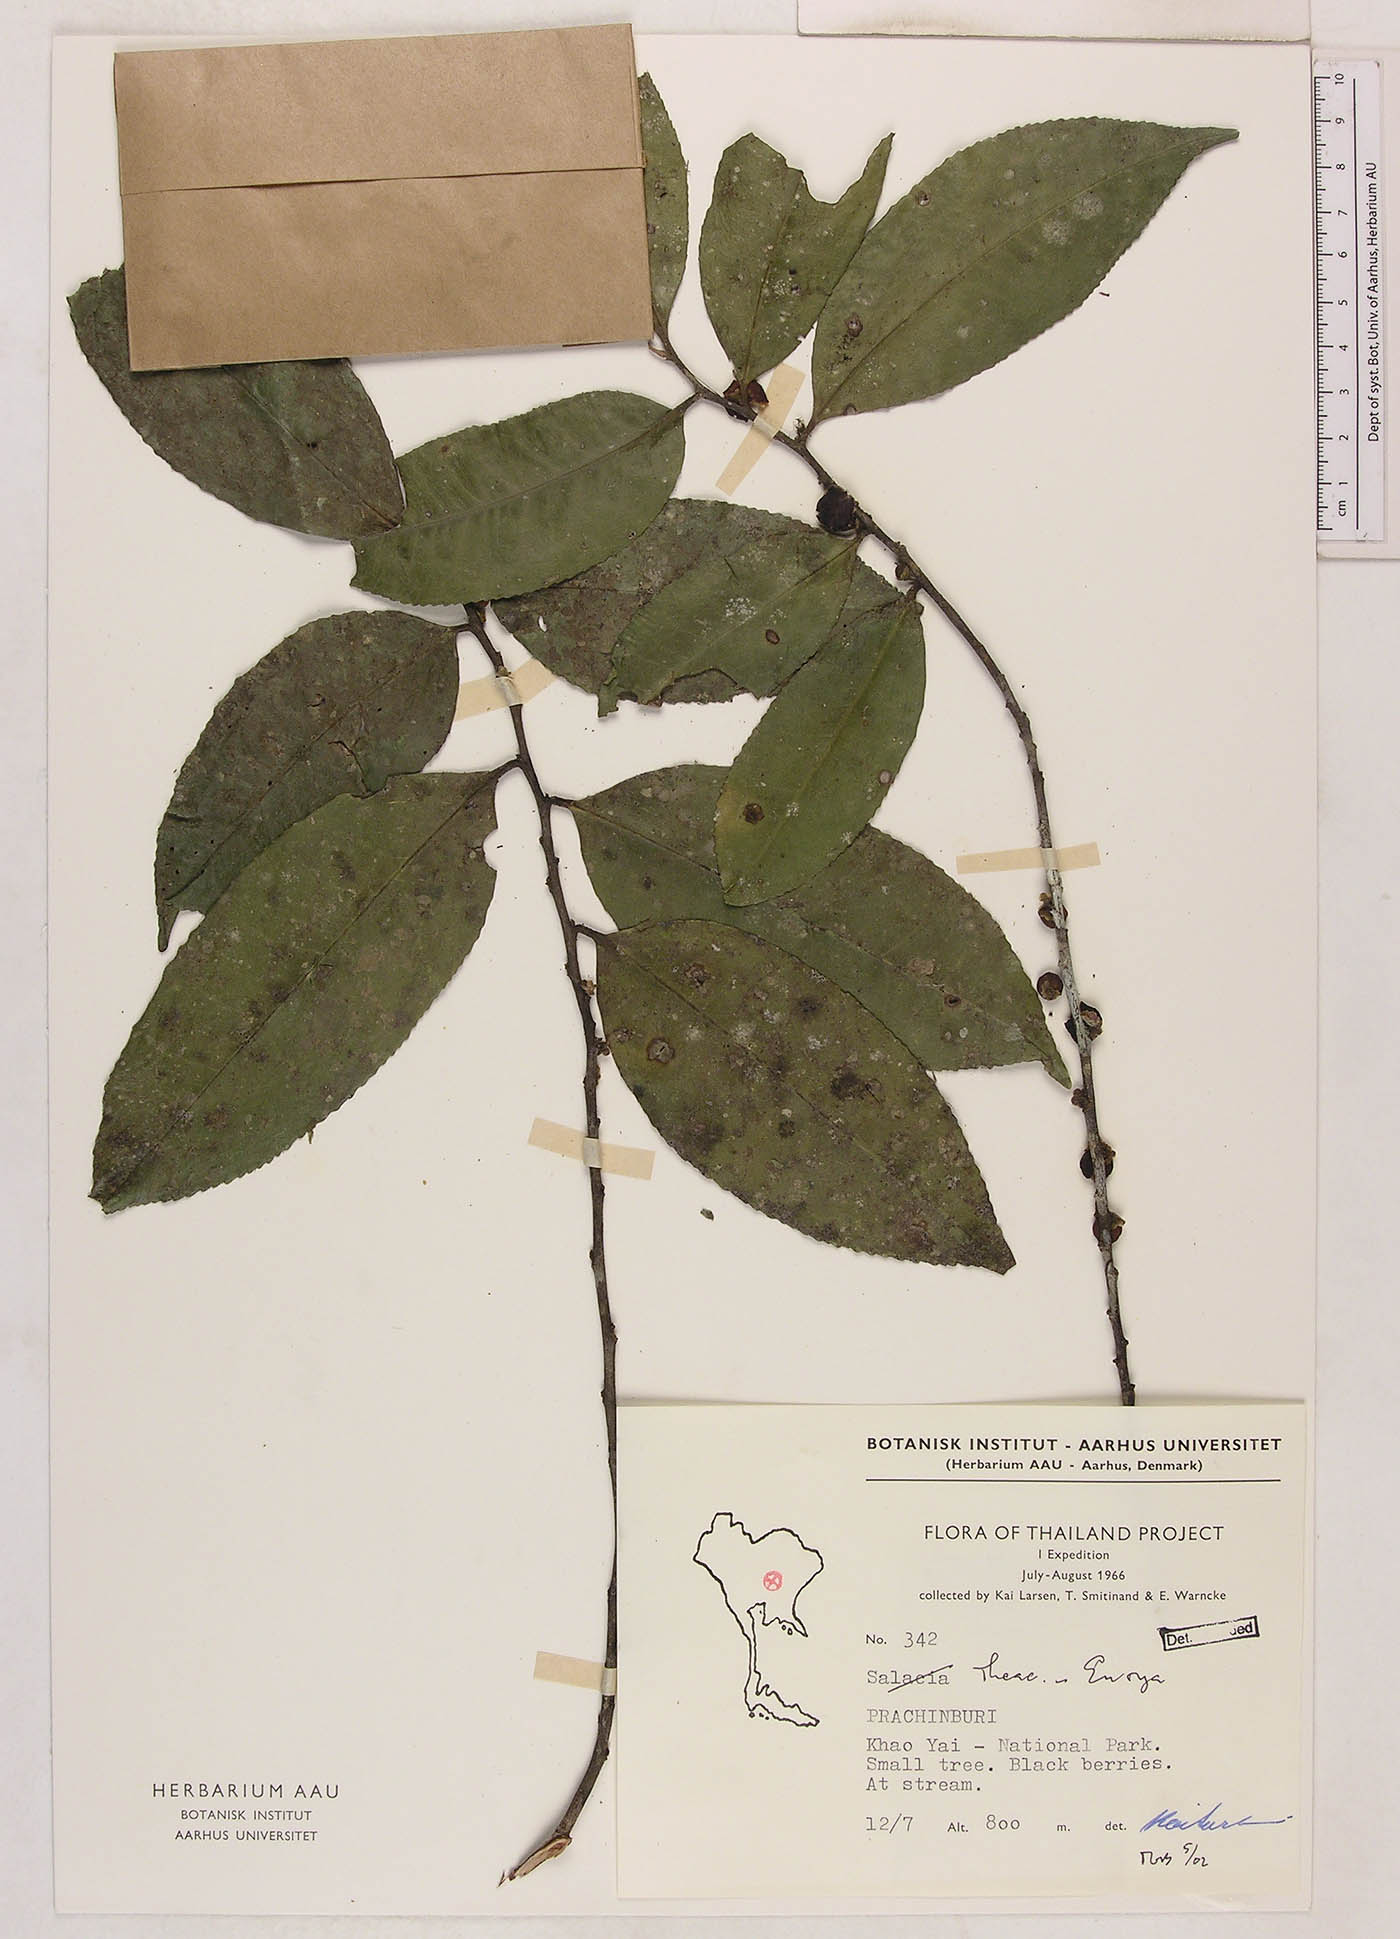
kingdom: Plantae
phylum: Tracheophyta
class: Magnoliopsida
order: Ericales
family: Pentaphylacaceae
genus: Eurya
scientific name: Eurya
